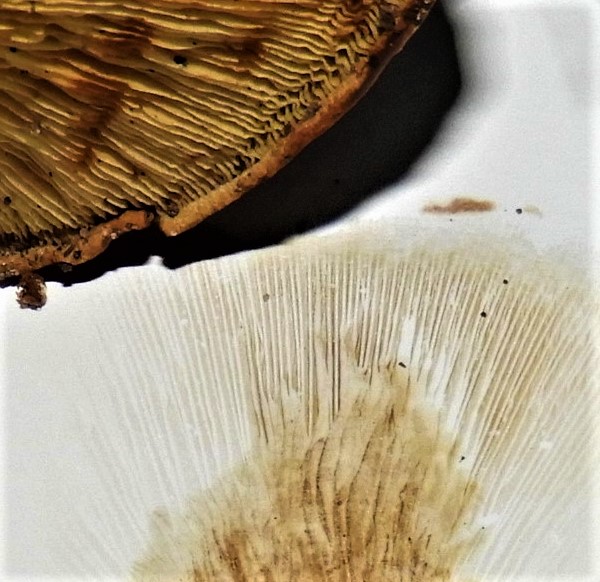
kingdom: Fungi
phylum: Basidiomycota
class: Agaricomycetes
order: Boletales
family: Paxillaceae
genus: Paxillus
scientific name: Paxillus ammoniavirescens
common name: olivensporet netbladhat
